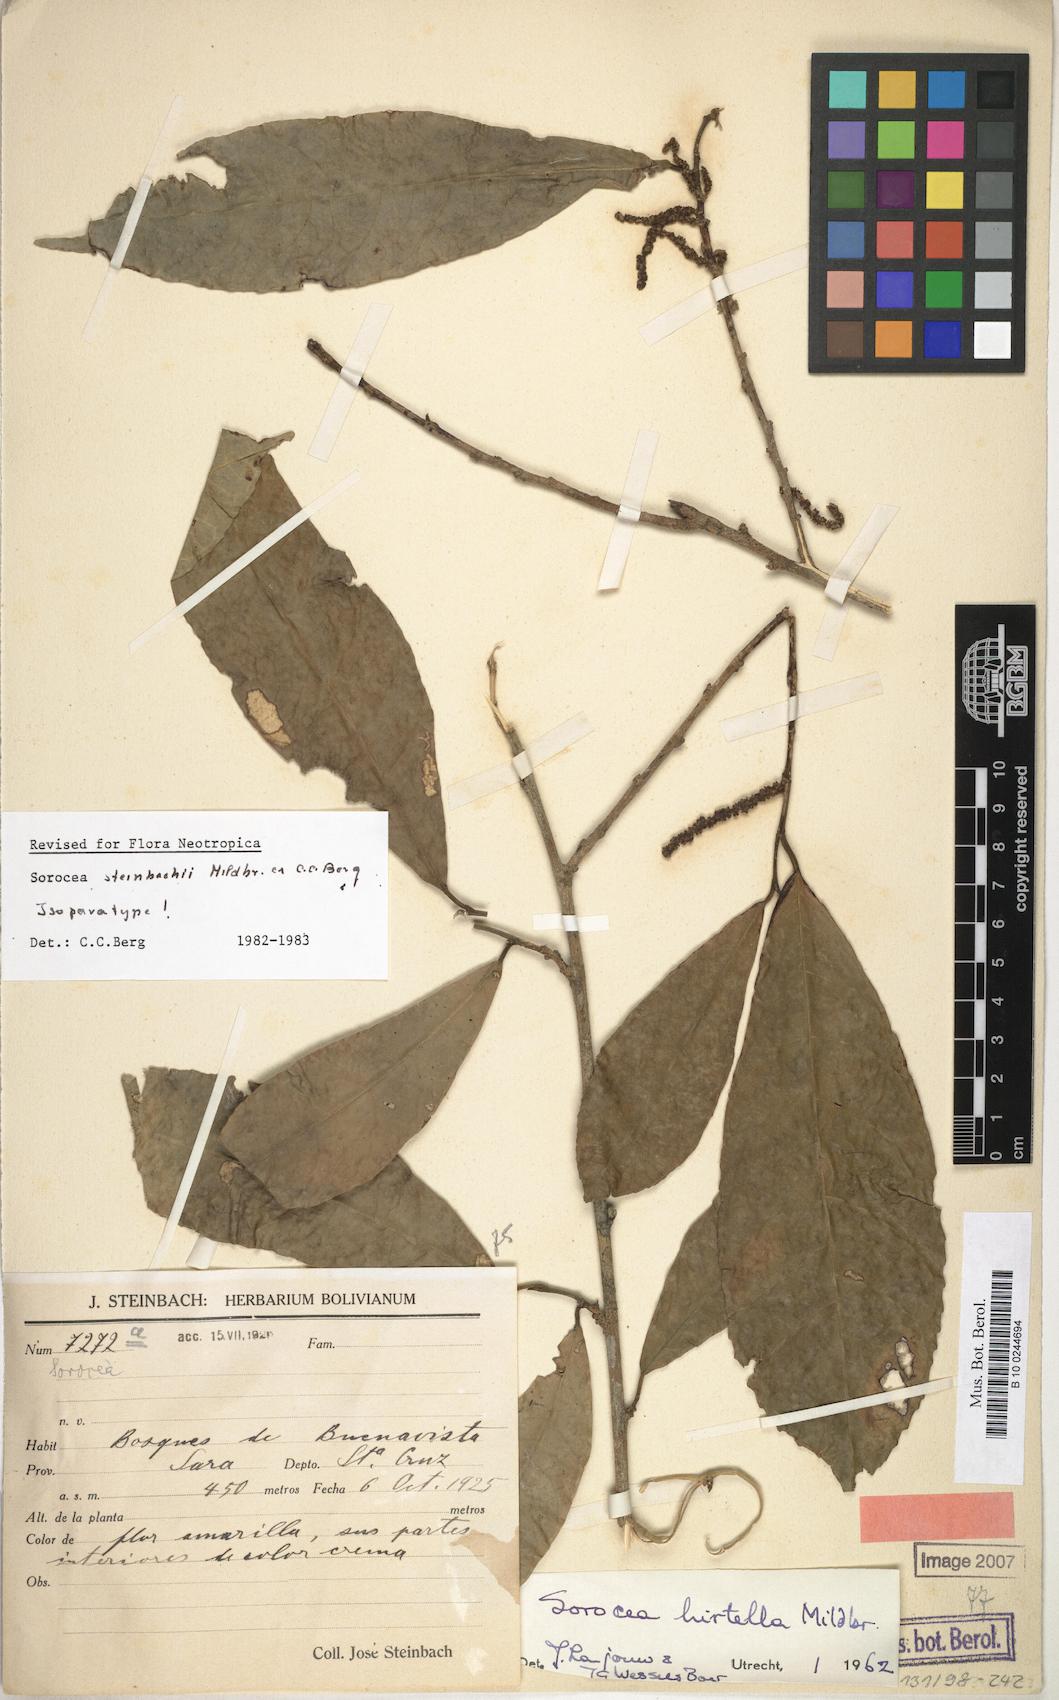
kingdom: Plantae
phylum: Tracheophyta
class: Magnoliopsida
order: Rosales
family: Moraceae
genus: Sorocea
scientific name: Sorocea steinbachii
